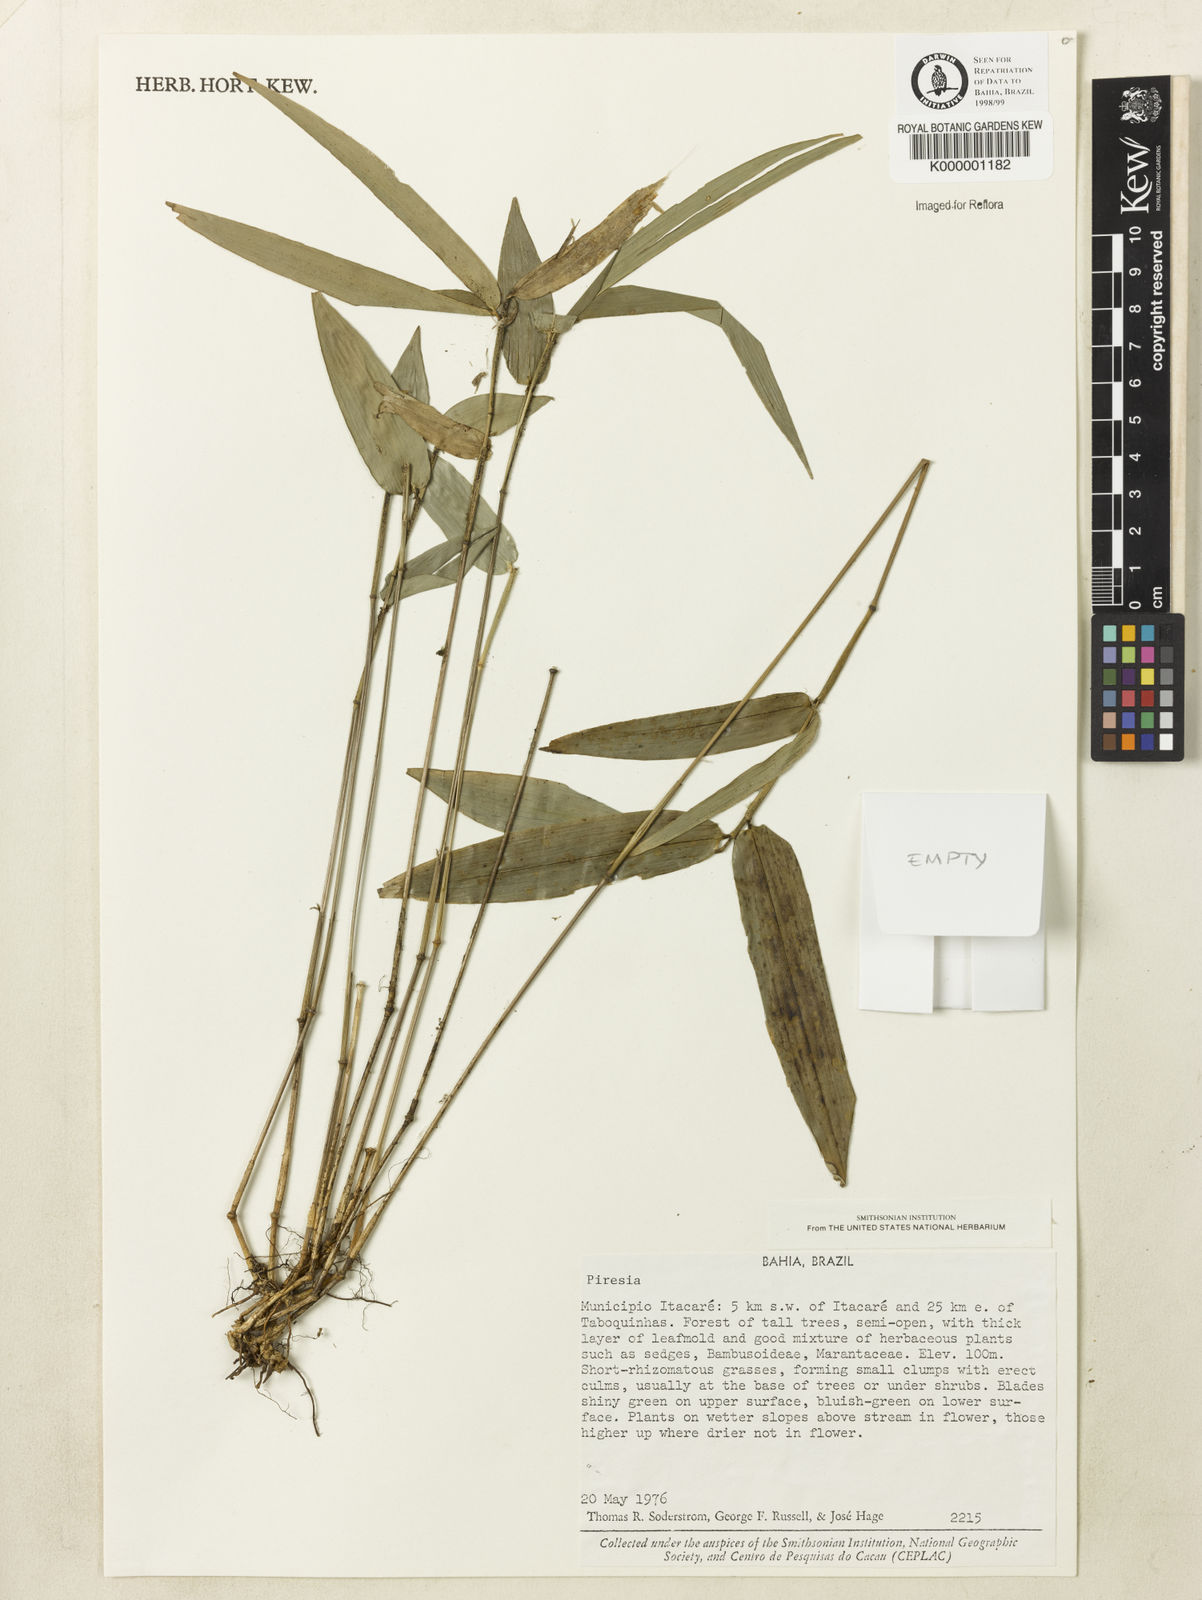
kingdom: Plantae
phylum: Tracheophyta
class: Liliopsida
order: Poales
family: Poaceae
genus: Piresia
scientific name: Piresia
